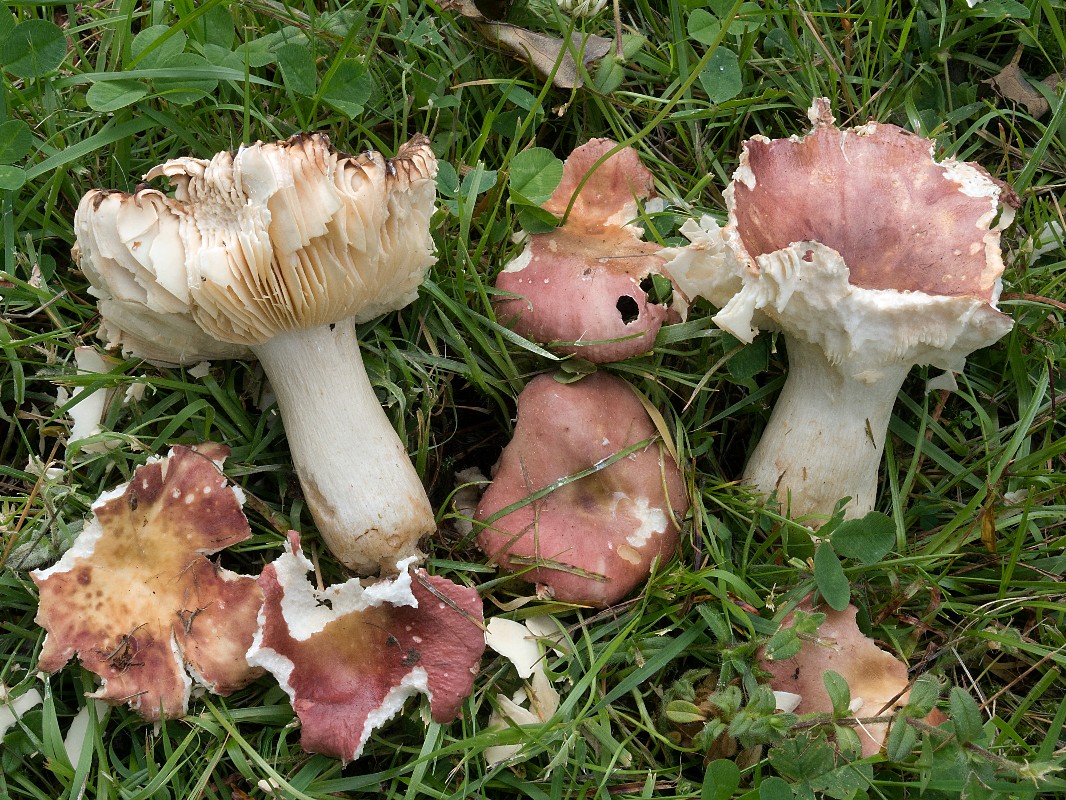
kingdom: Fungi
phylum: Basidiomycota
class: Agaricomycetes
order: Russulales
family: Russulaceae
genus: Russula
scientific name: Russula faginea
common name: bøge-skørhat
